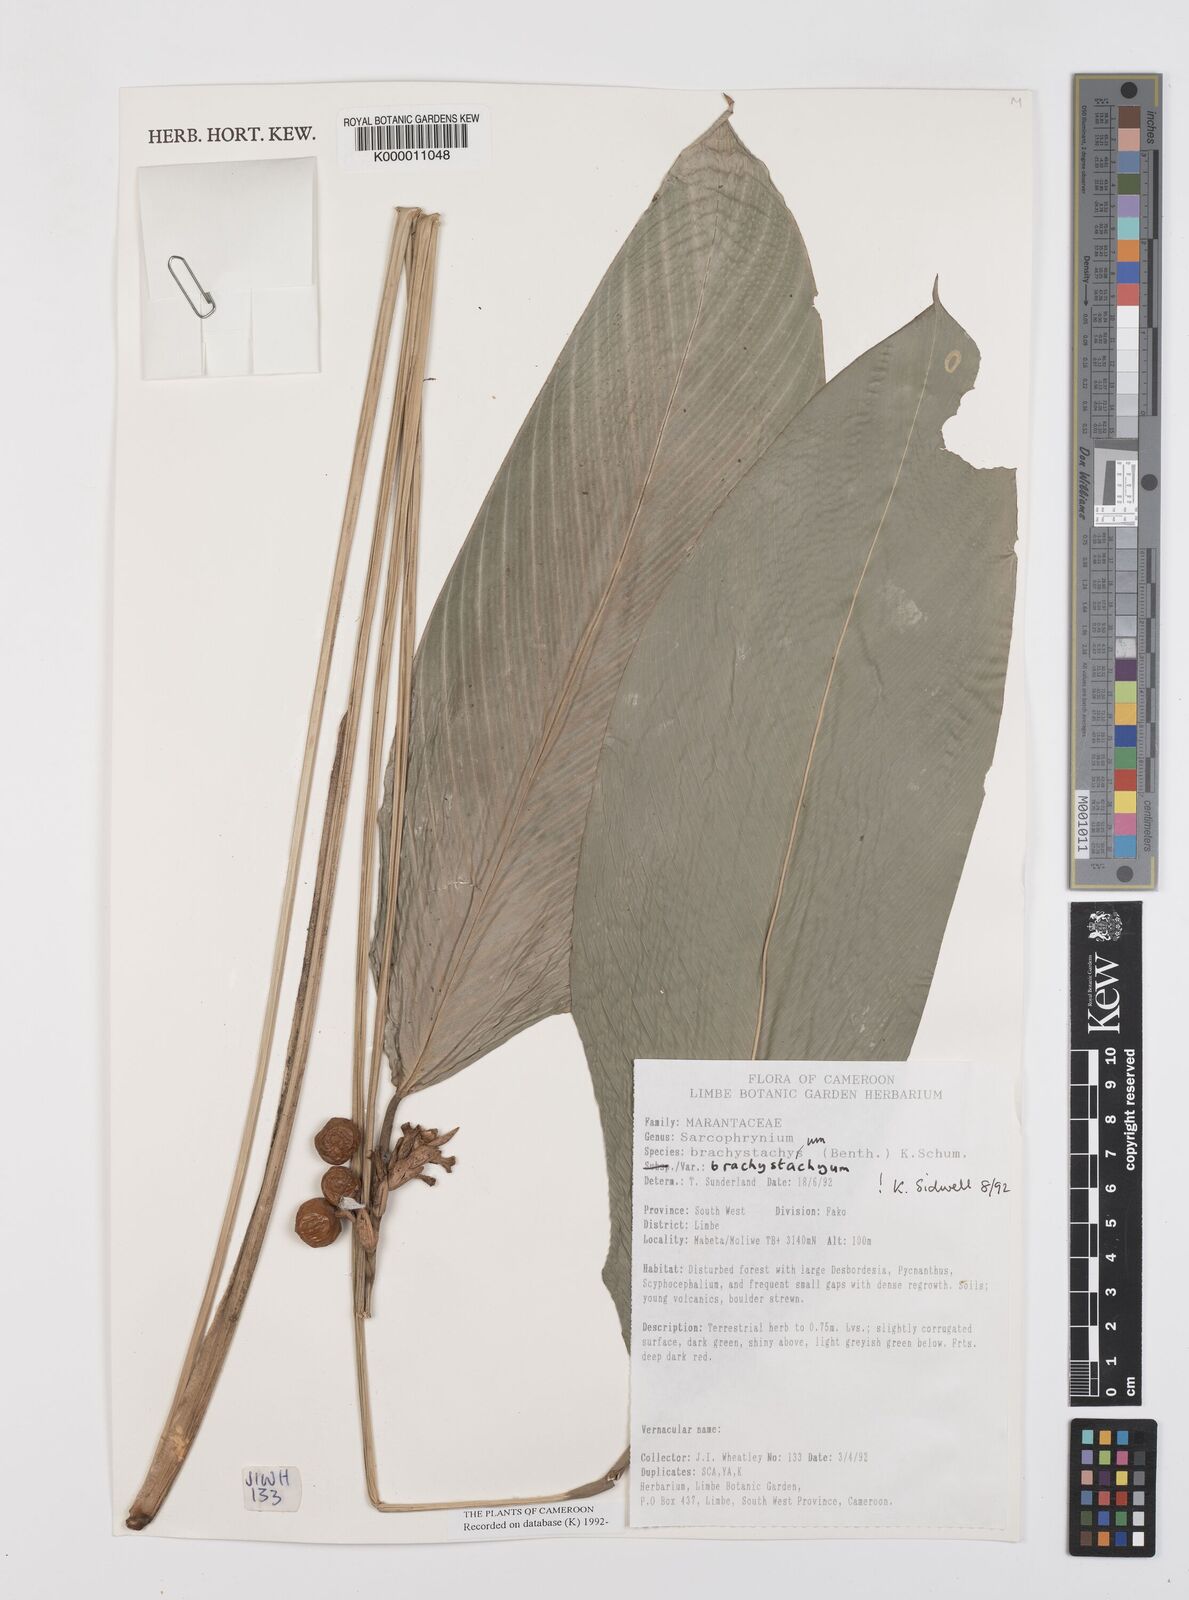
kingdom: Plantae
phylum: Tracheophyta
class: Liliopsida
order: Zingiberales
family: Marantaceae
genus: Sarcophrynium
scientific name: Sarcophrynium
